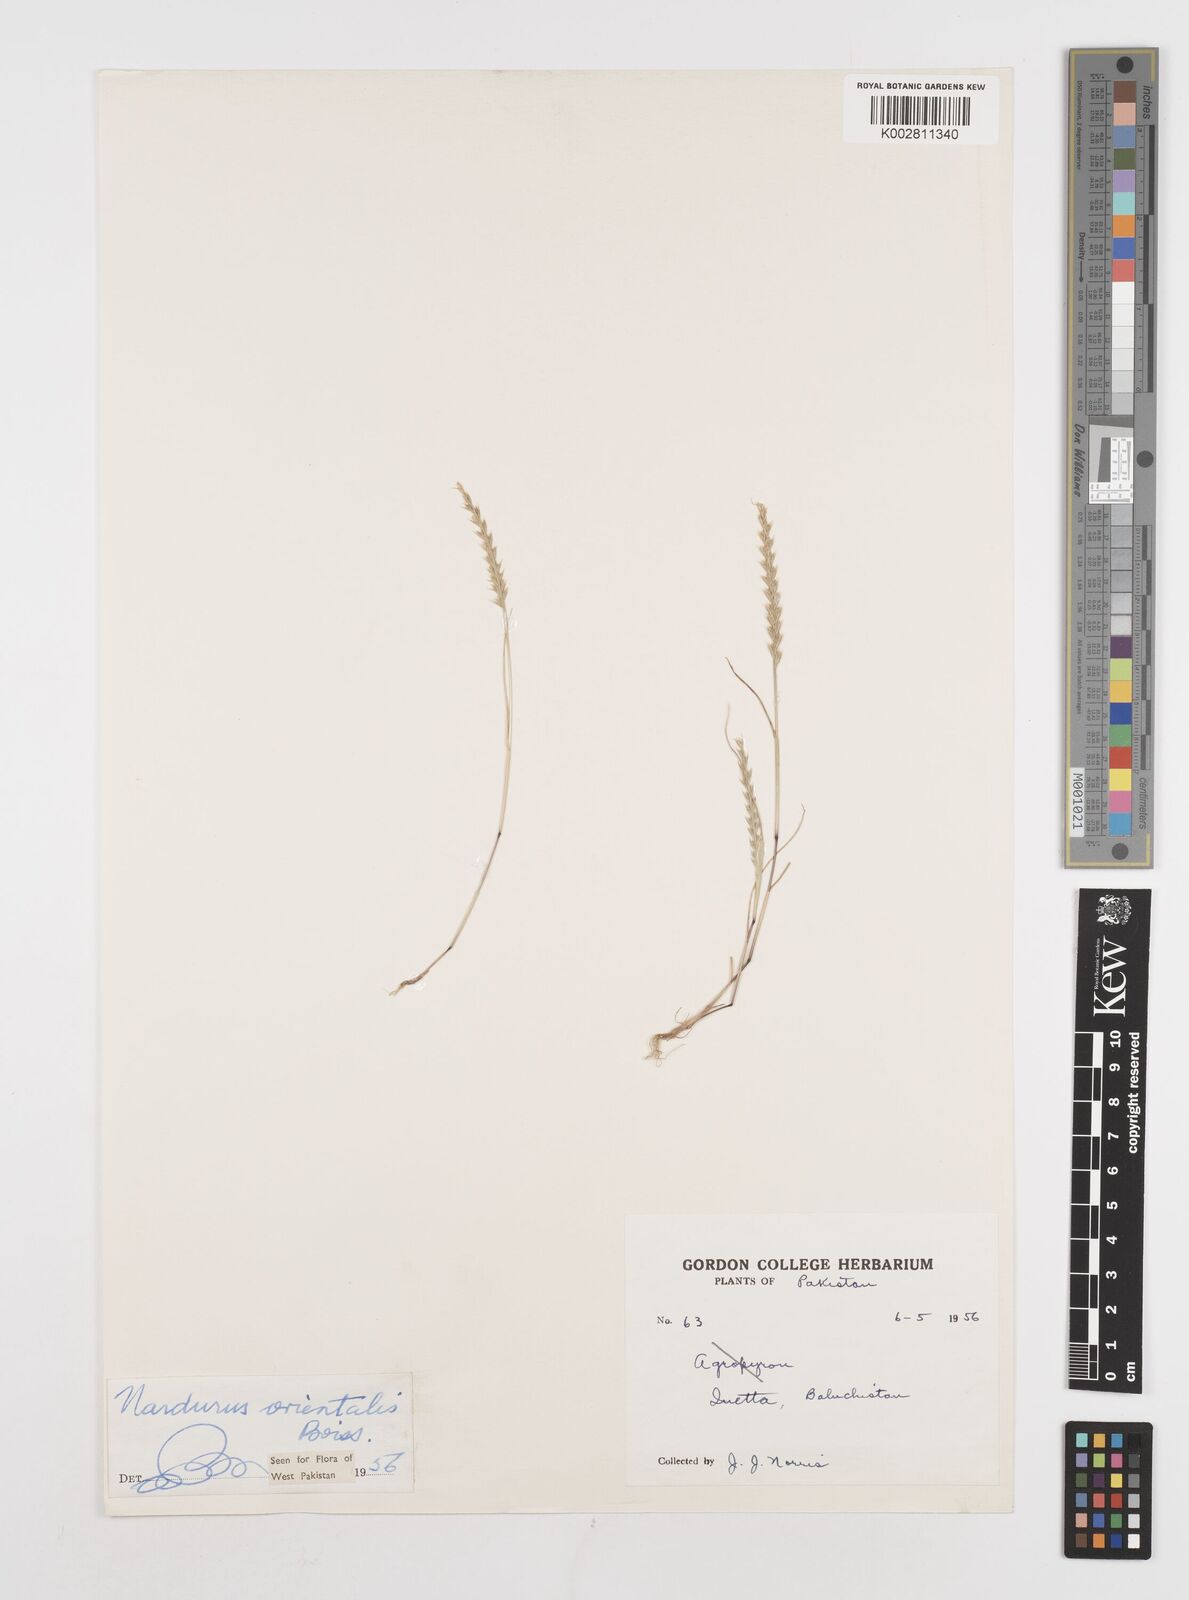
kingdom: Plantae
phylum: Tracheophyta
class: Liliopsida
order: Poales
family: Poaceae
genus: Festuca
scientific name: Festuca orientalis
